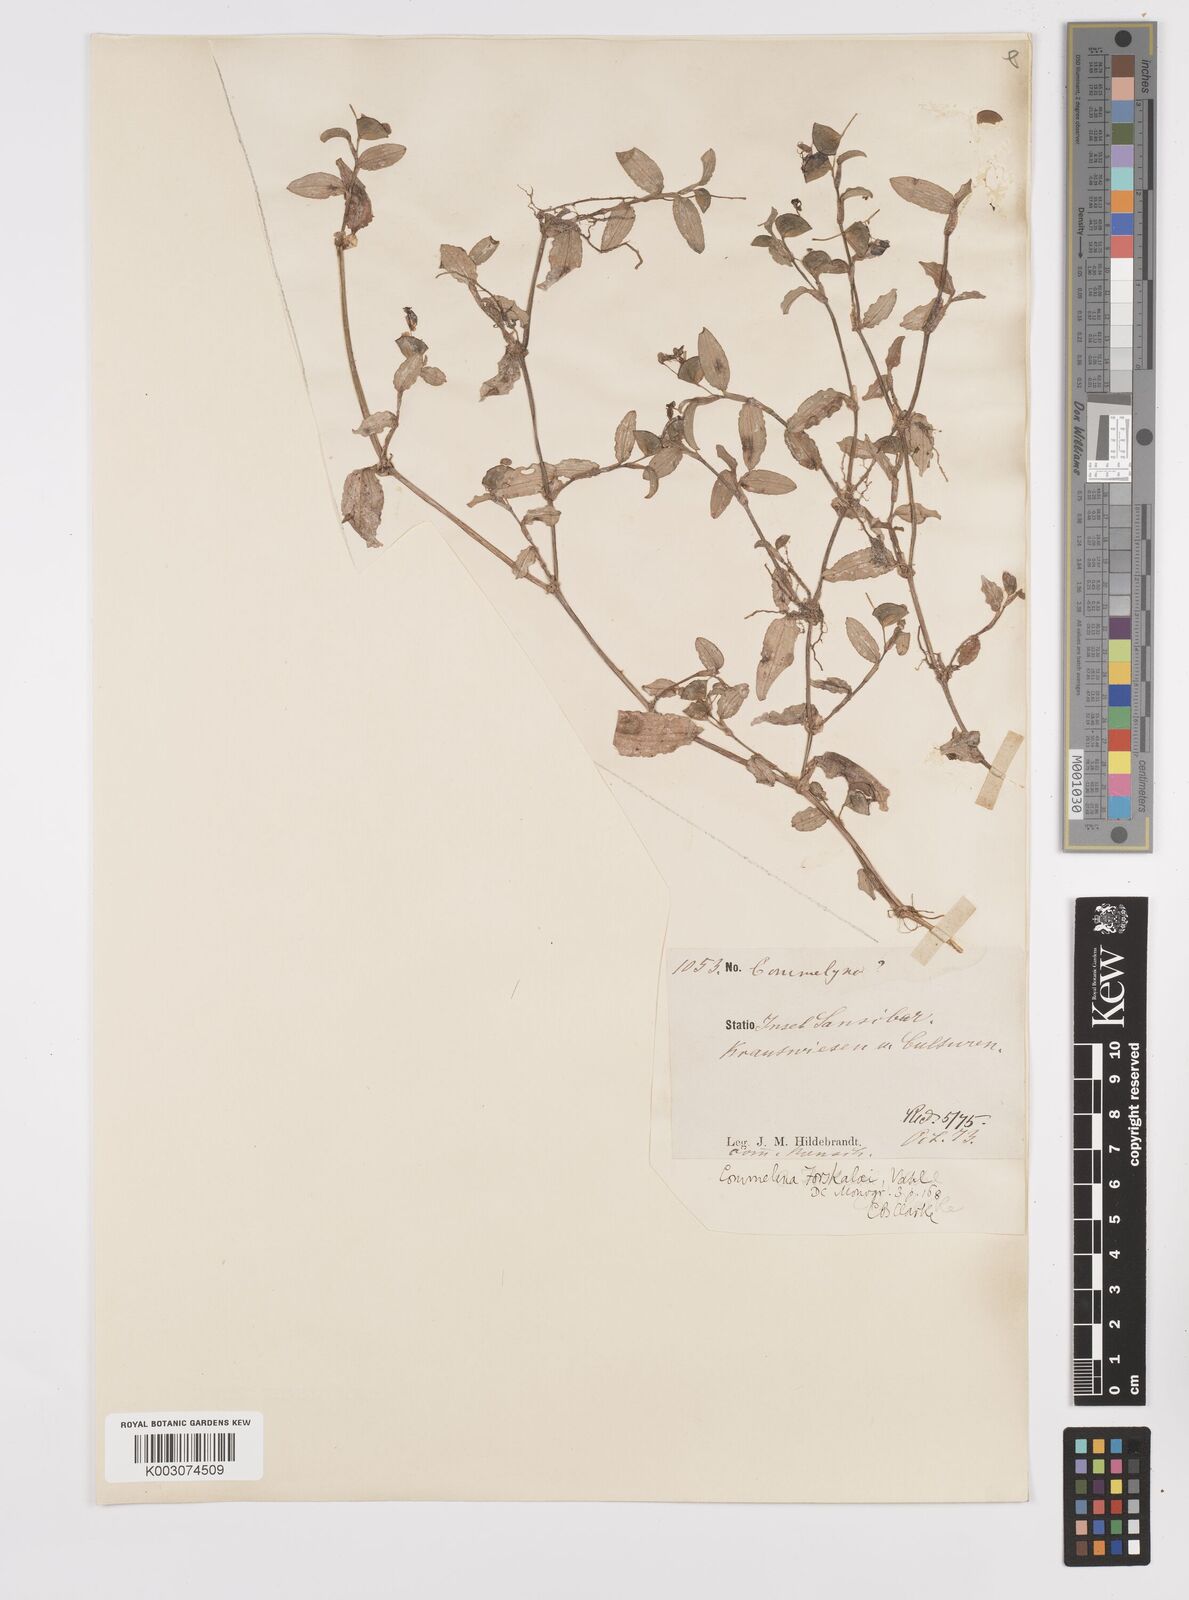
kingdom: Plantae
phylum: Tracheophyta
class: Liliopsida
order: Commelinales
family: Commelinaceae
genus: Commelina
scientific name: Commelina forskaolii
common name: Rat's ear
